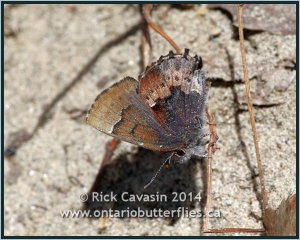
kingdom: Animalia
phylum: Arthropoda
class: Insecta
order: Lepidoptera
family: Lycaenidae
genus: Incisalia
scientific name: Incisalia henrici
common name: Henry's Elfin
